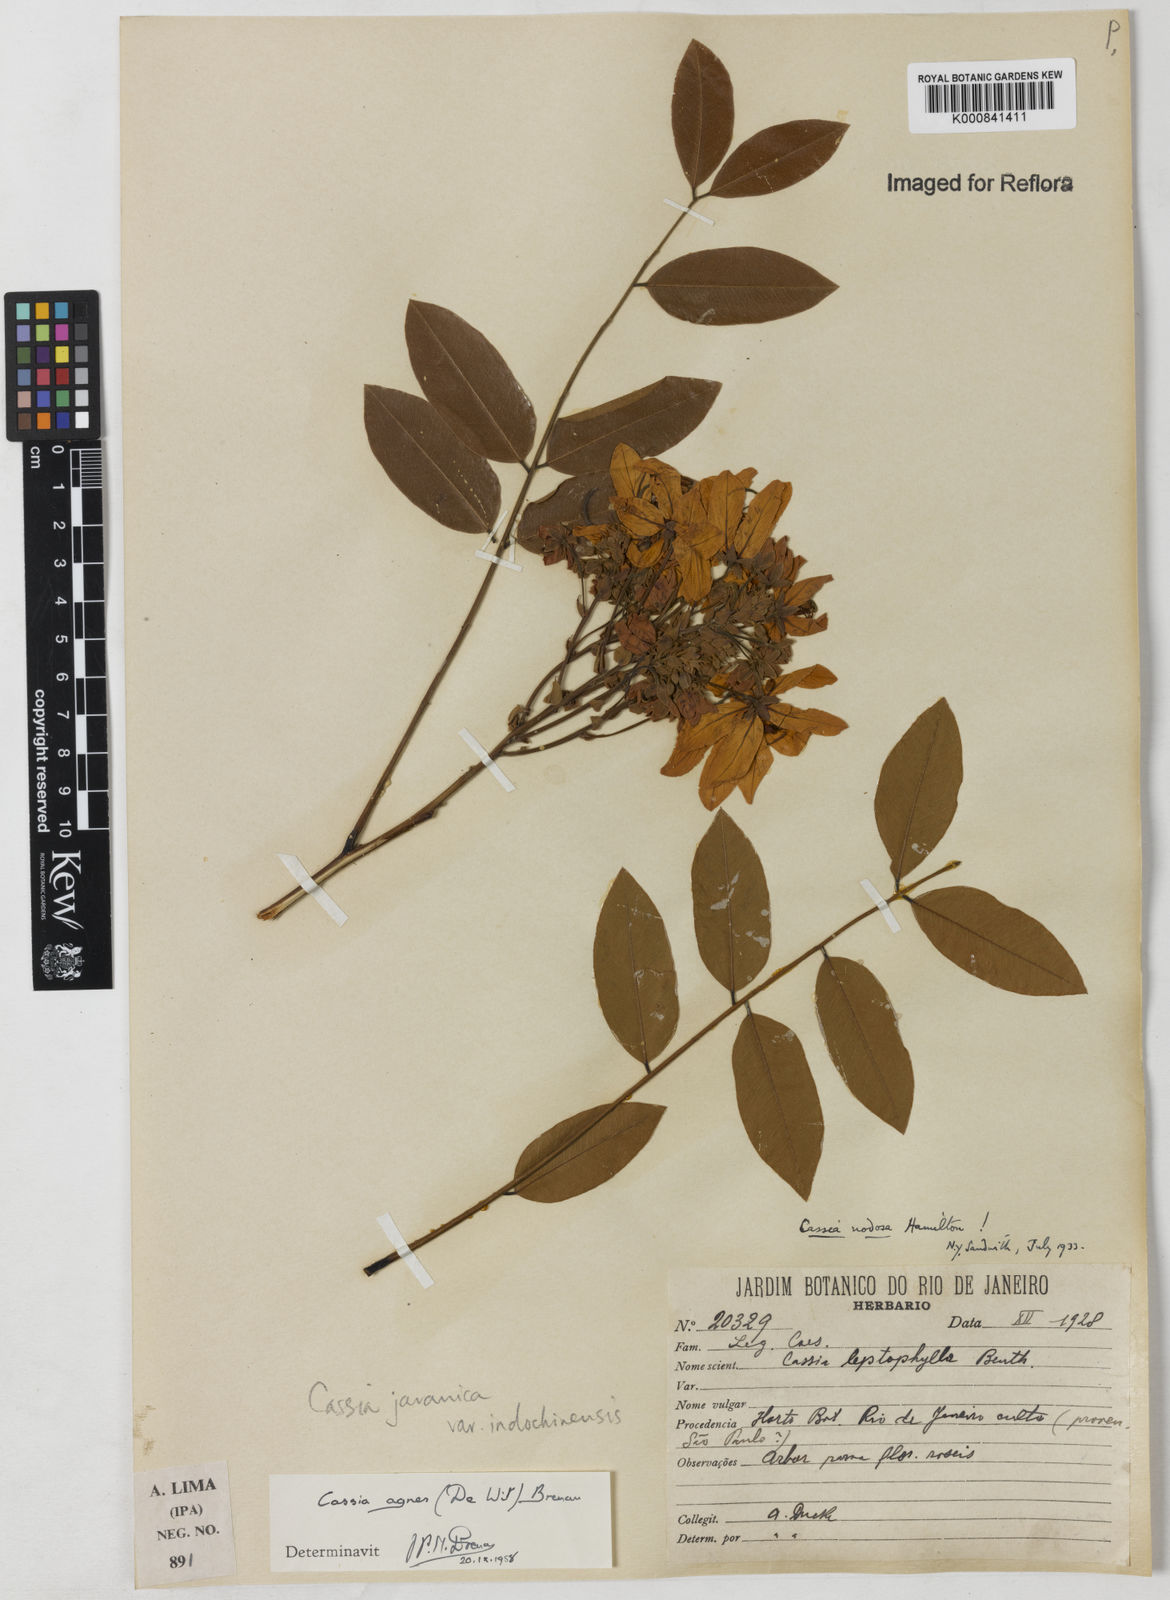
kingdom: Plantae
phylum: Tracheophyta
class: Magnoliopsida
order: Fabales
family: Fabaceae
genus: Cassia
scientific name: Cassia javanica
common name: Apple blossom
